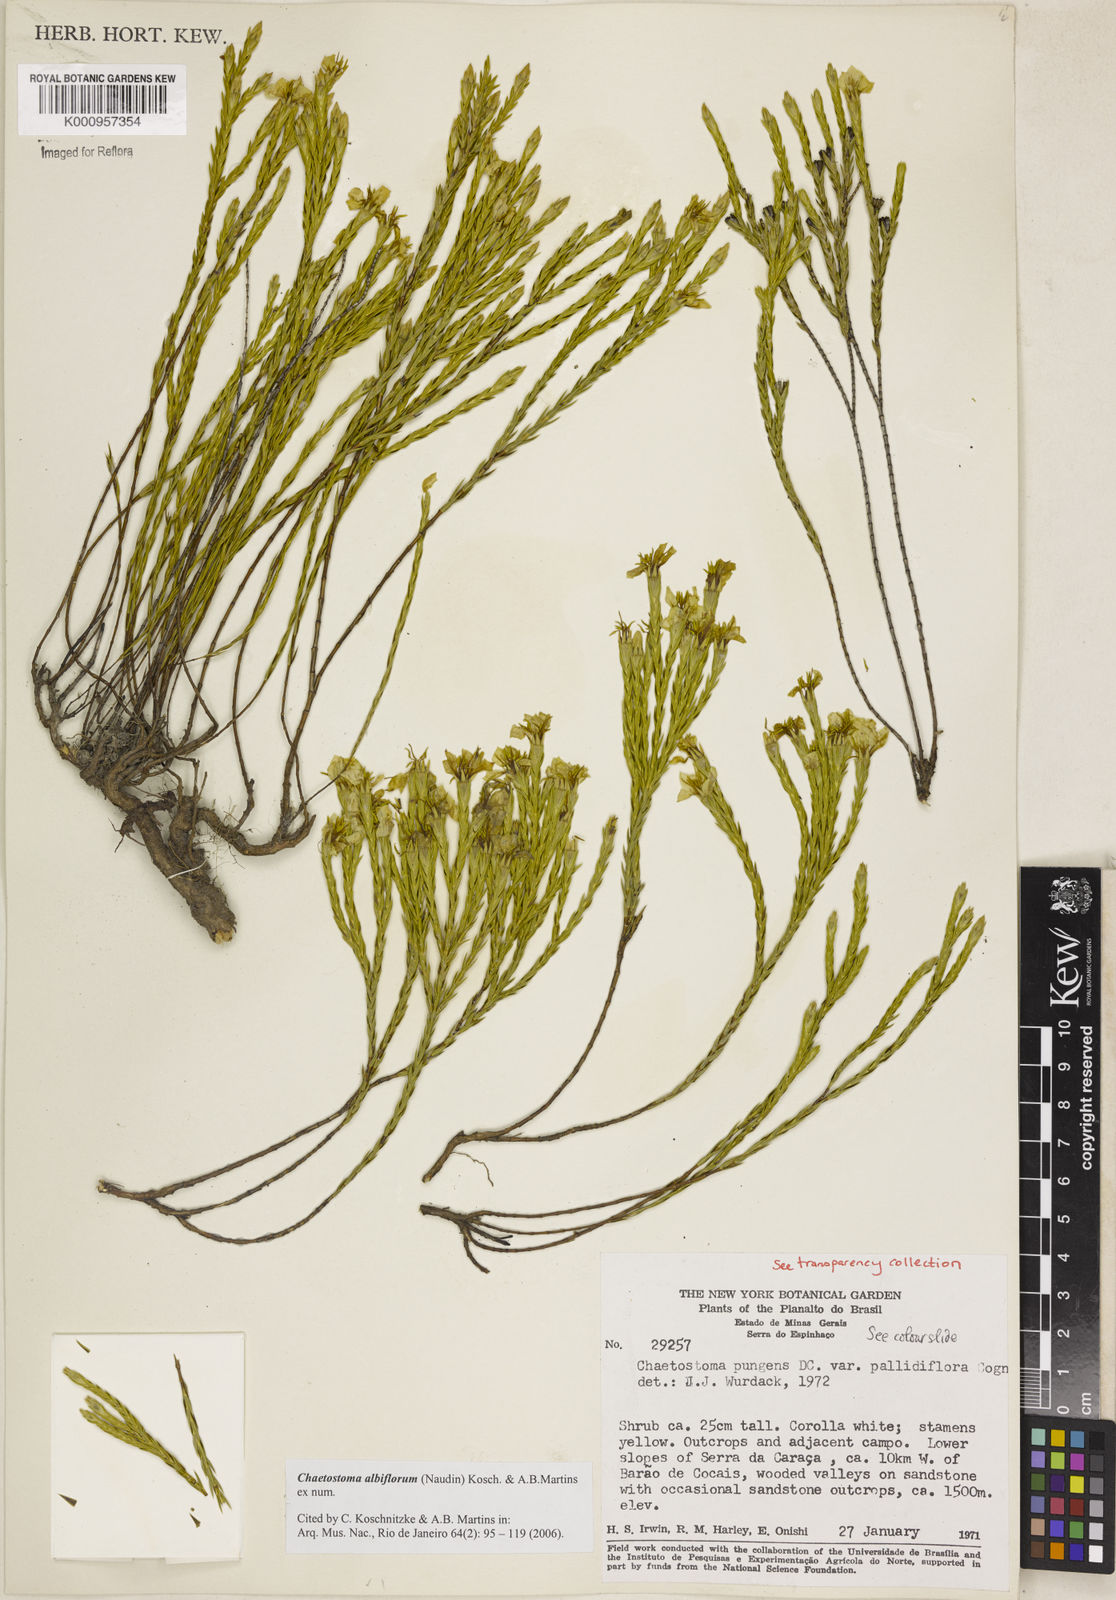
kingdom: Plantae
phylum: Tracheophyta
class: Magnoliopsida
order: Myrtales
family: Melastomataceae
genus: Microlicia
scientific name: Microlicia albiflora
